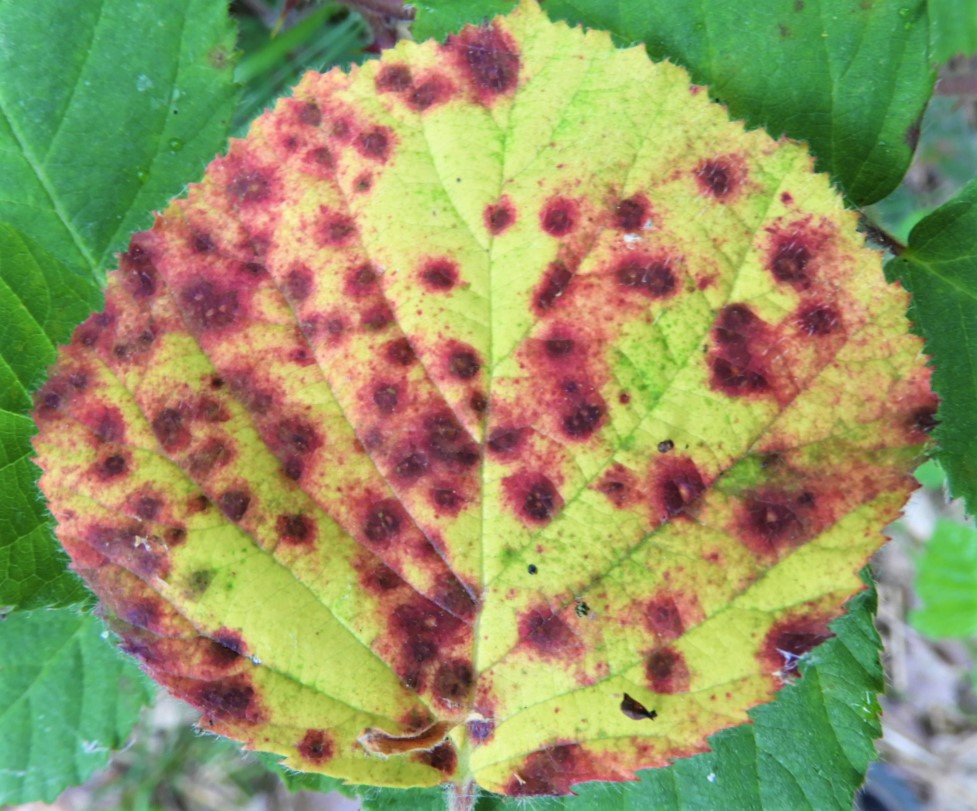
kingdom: Fungi
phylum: Basidiomycota
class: Pucciniomycetes
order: Pucciniales
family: Phragmidiaceae
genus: Phragmidium
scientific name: Phragmidium violaceum
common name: violet flercellerust
